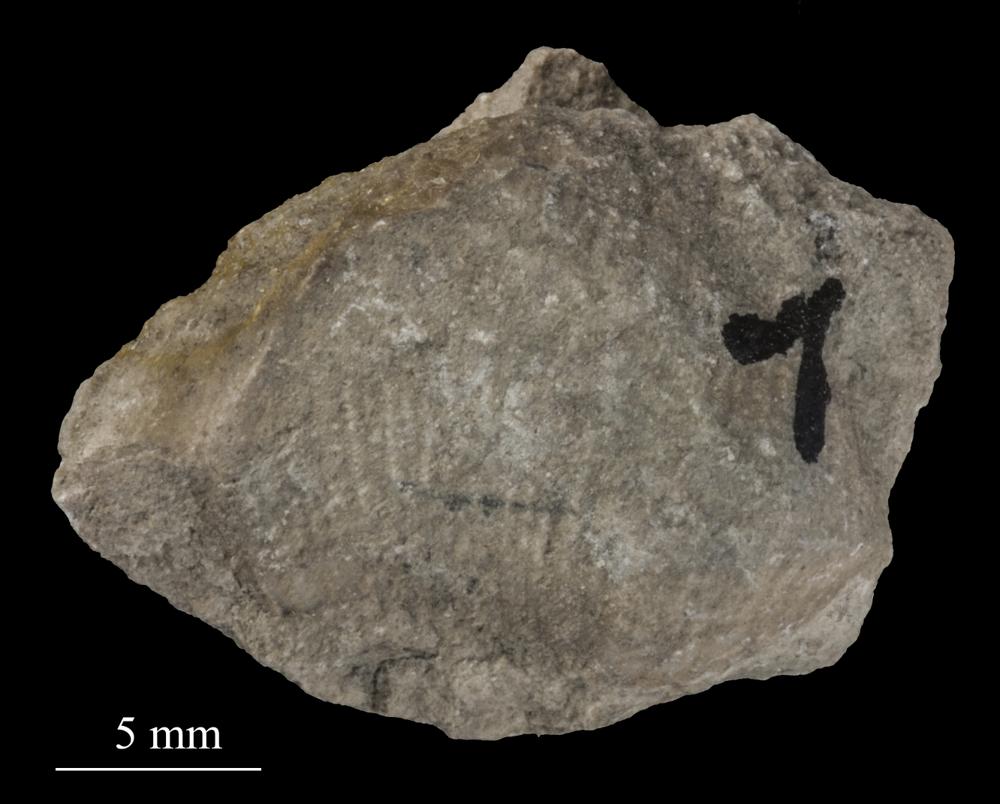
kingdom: Animalia
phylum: Brachiopoda
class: Rhynchonellata
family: Triplesiidae
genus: Cliftonia
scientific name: Cliftonia
